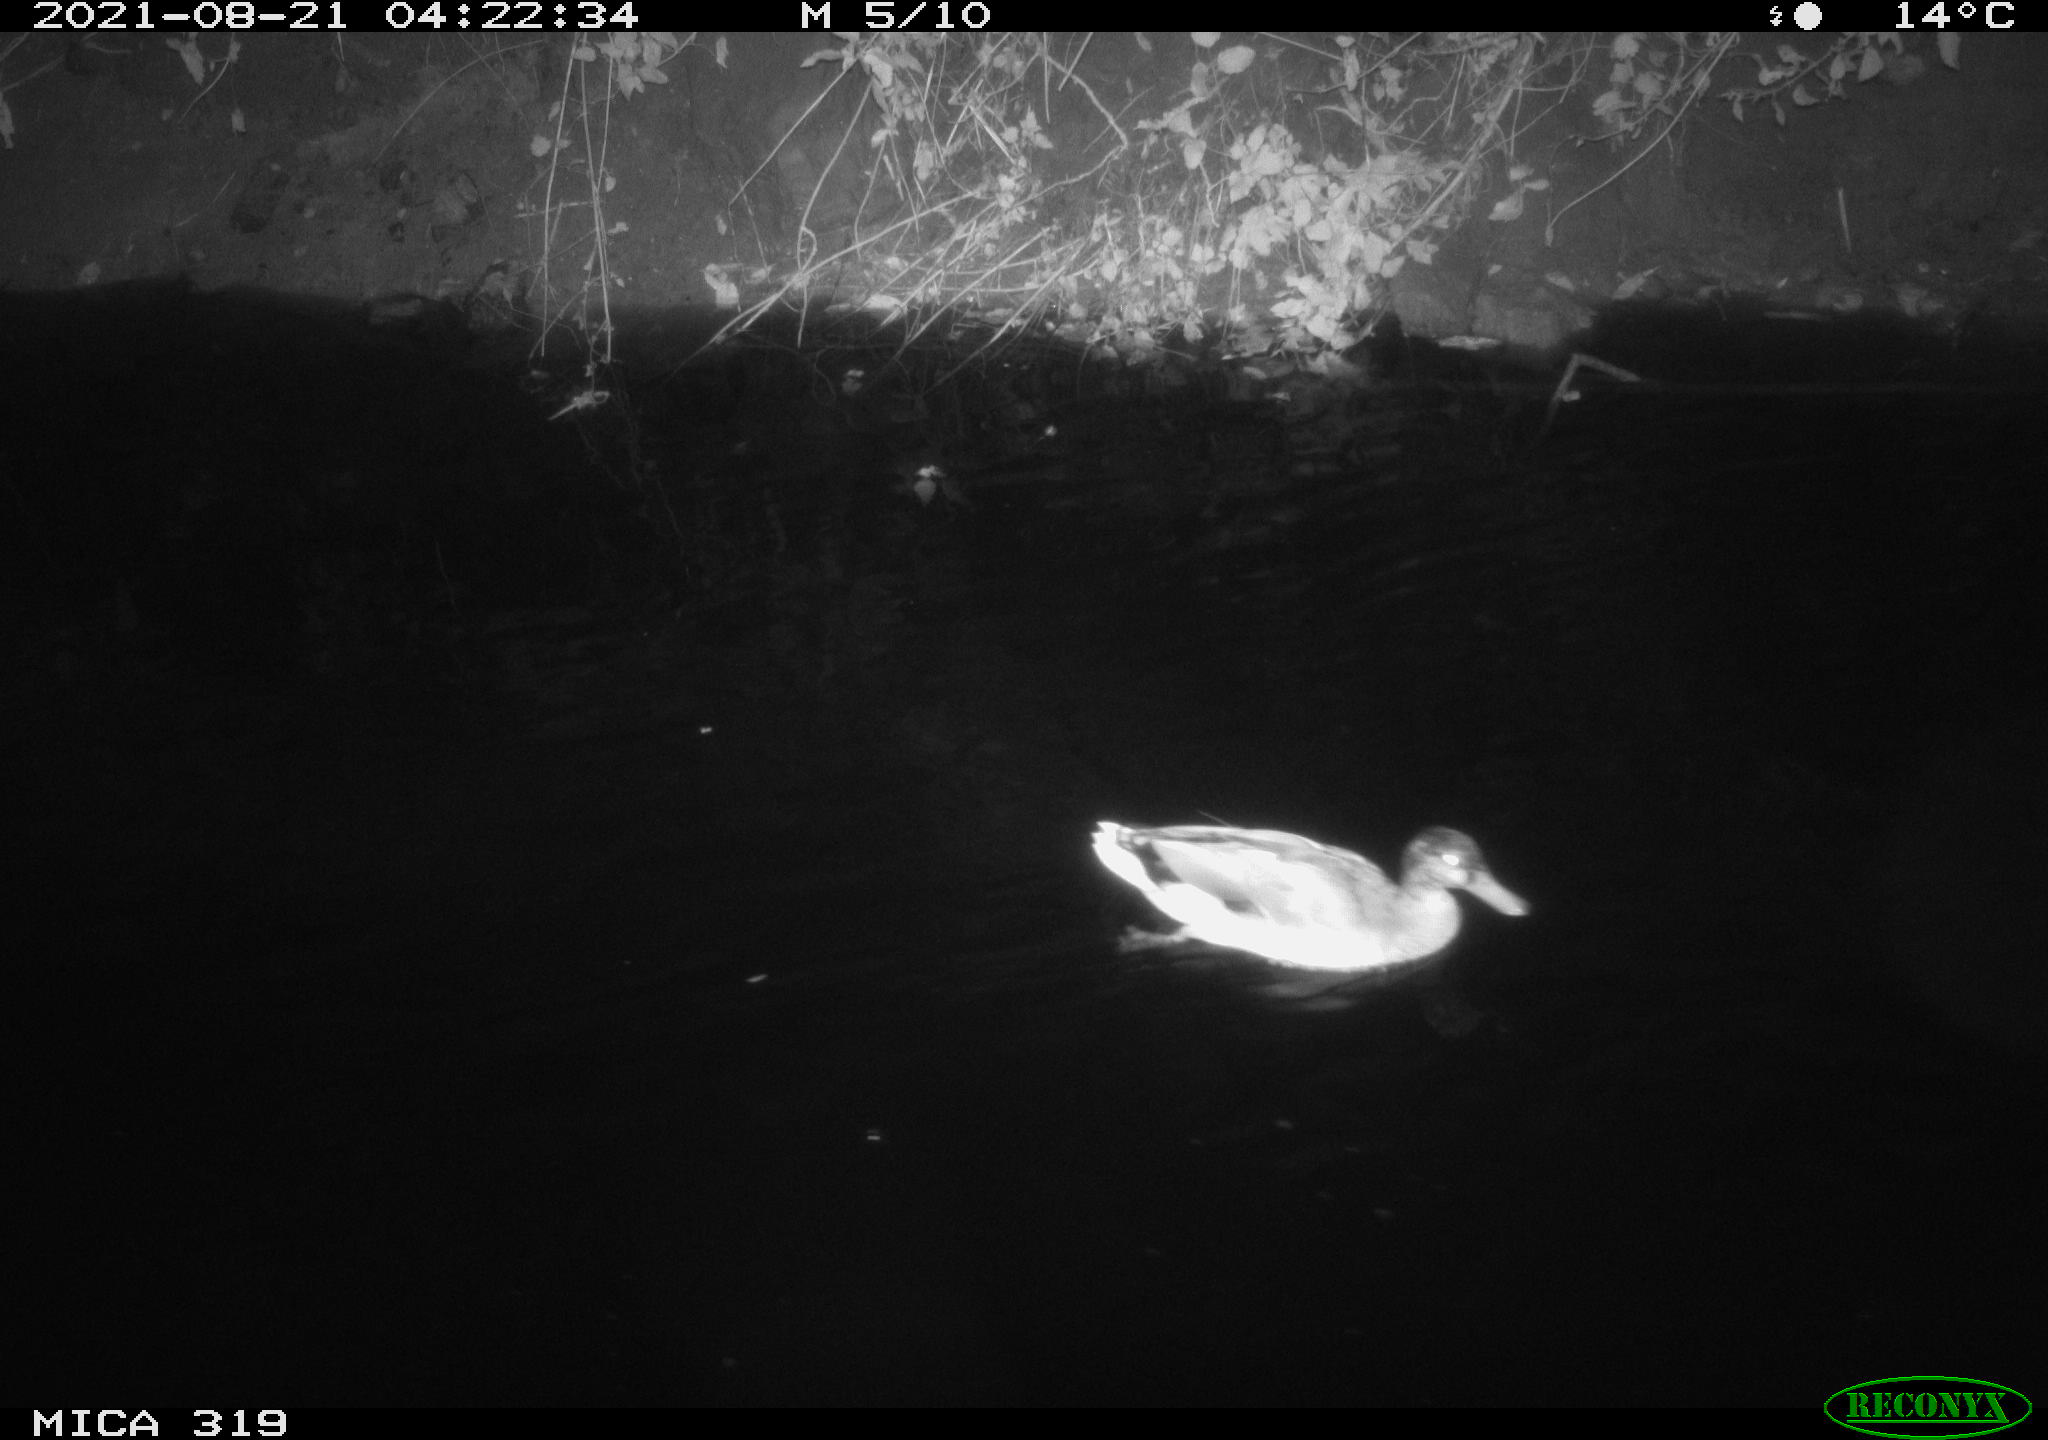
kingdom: Animalia
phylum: Chordata
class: Aves
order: Anseriformes
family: Anatidae
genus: Anas
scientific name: Anas platyrhynchos
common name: Mallard
